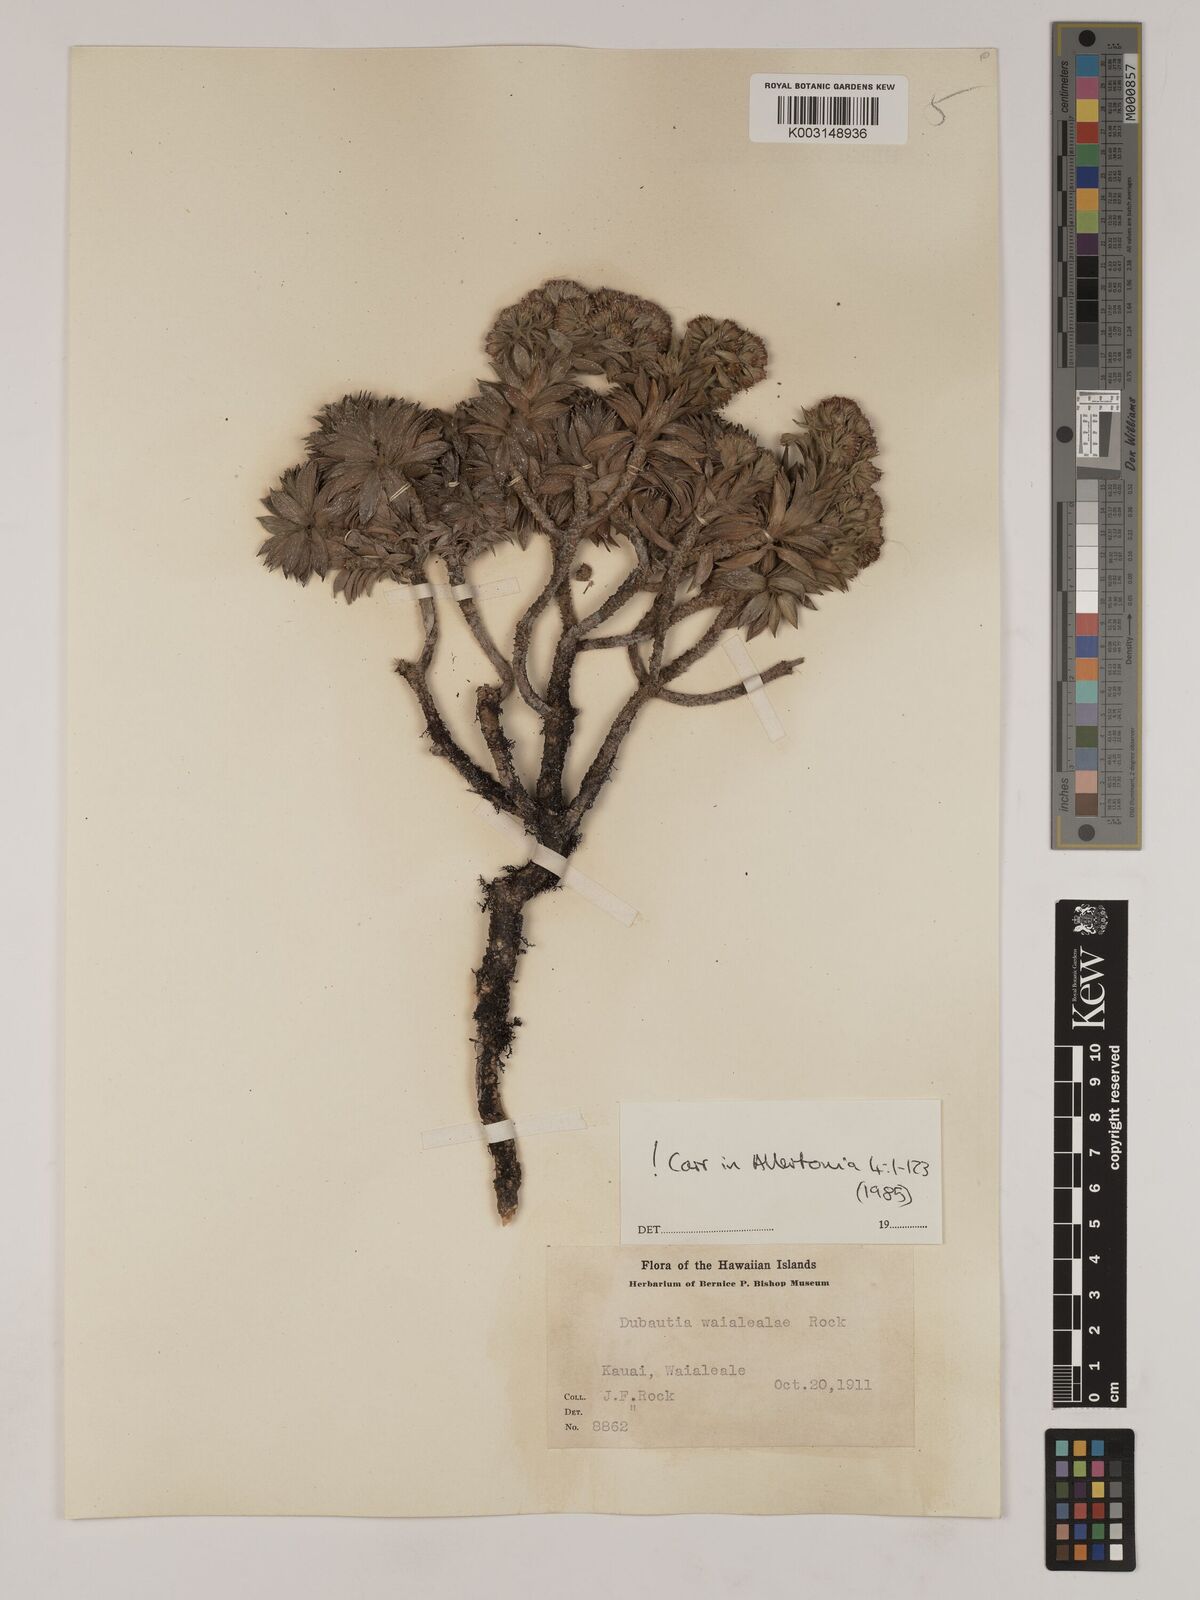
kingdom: Plantae
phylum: Tracheophyta
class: Magnoliopsida
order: Asterales
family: Asteraceae
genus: Dubautia
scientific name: Dubautia waialealae
